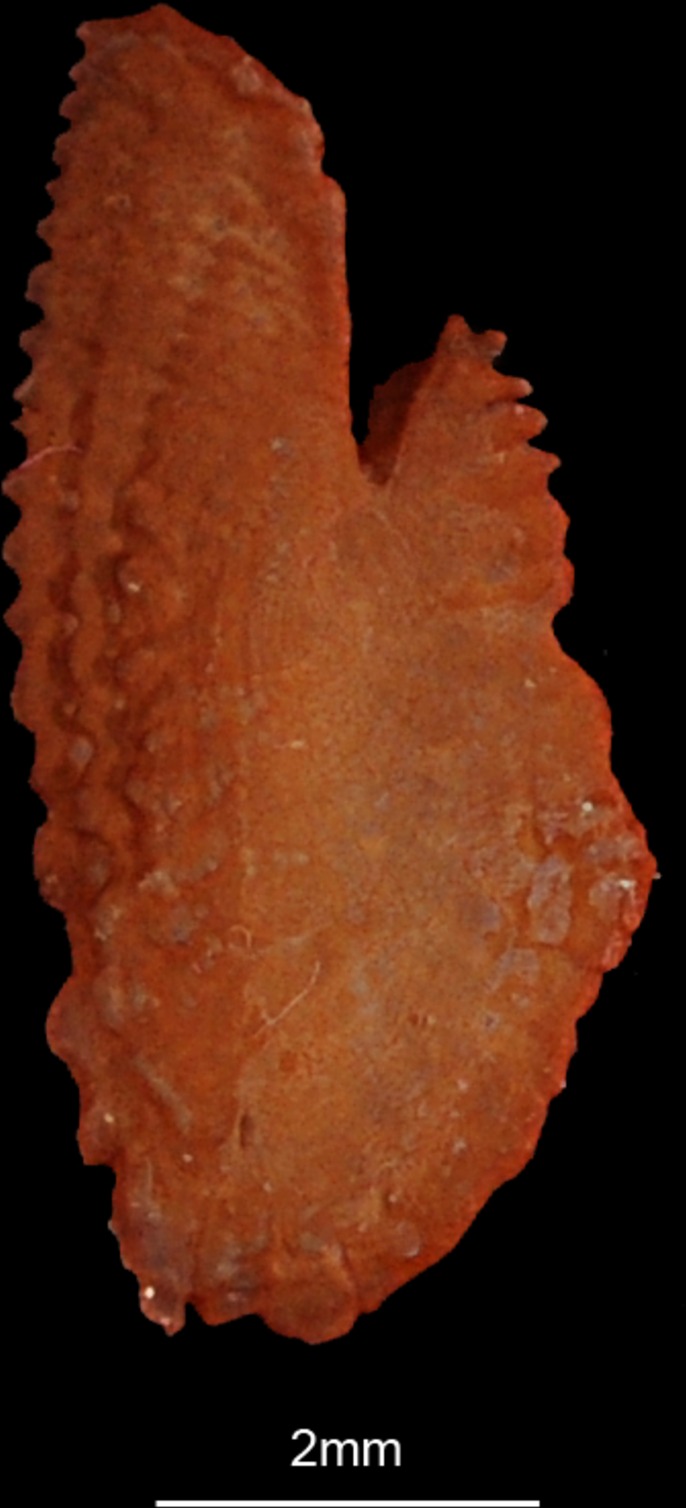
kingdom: Animalia
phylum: Chordata
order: Perciformes
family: Carangidae
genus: Carangoides
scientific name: Carangoides chrysophrys
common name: Longnose trevally
